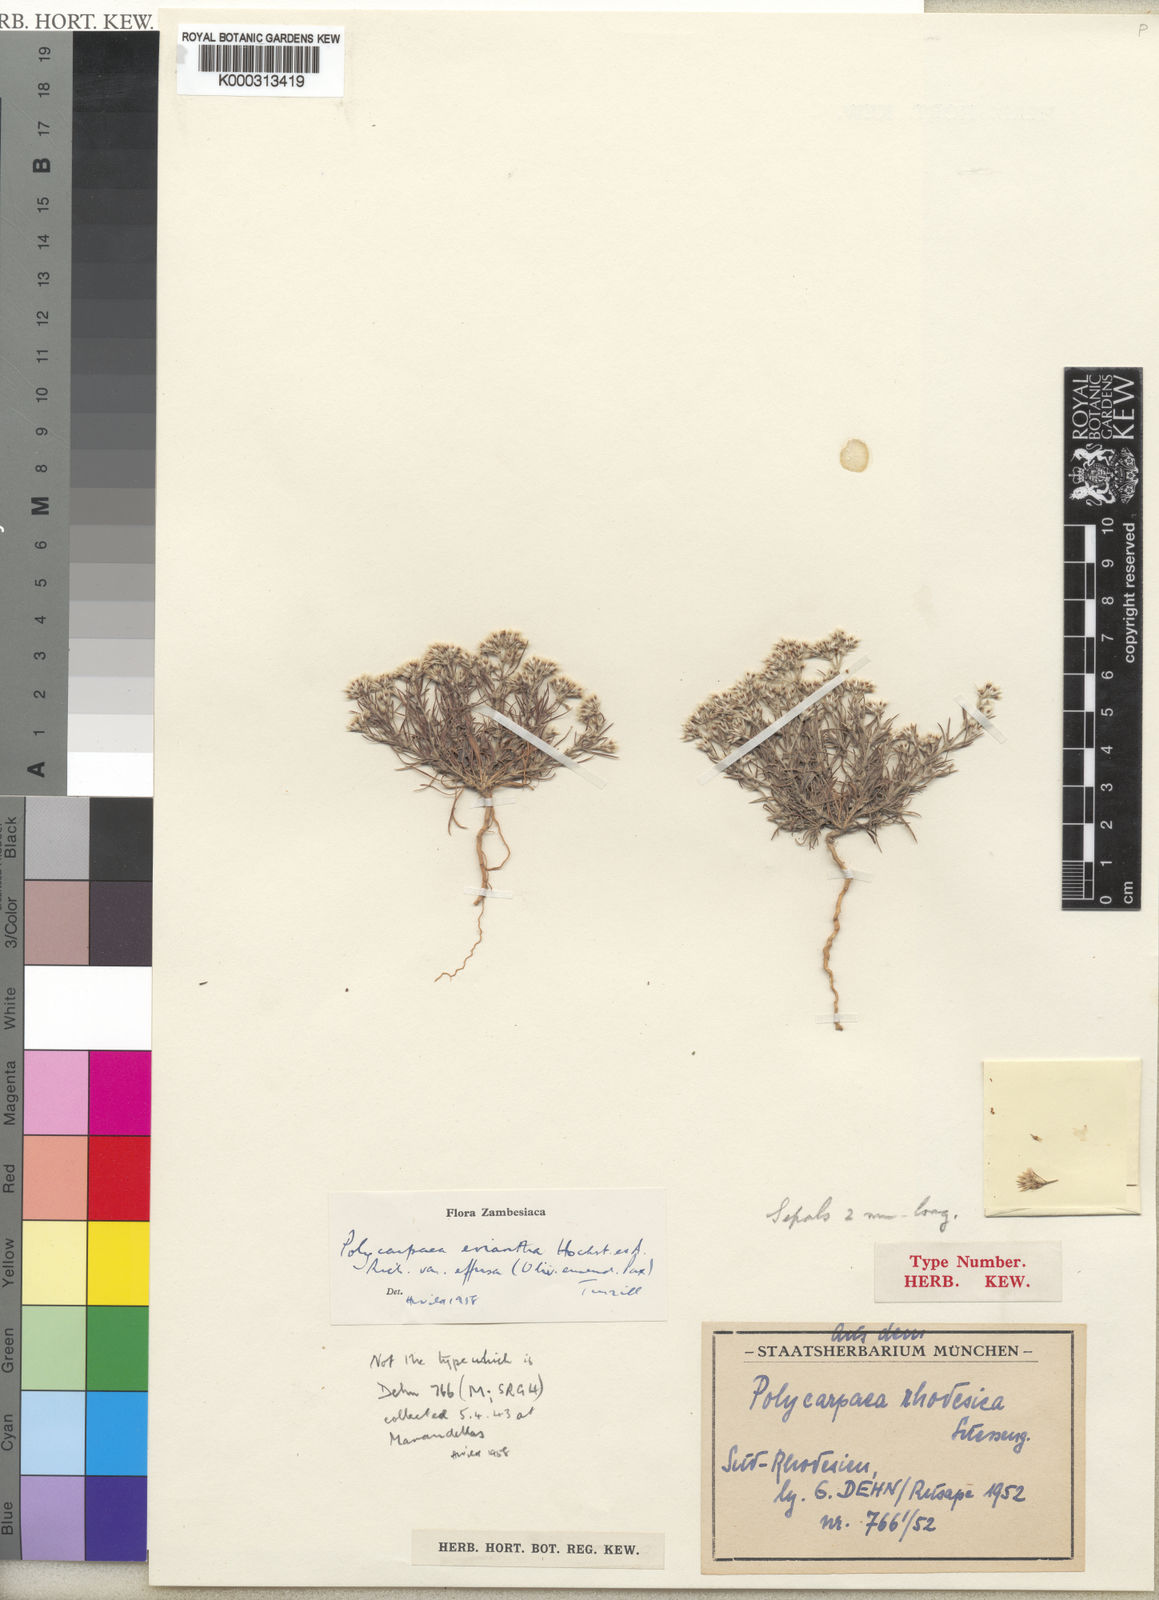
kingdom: Plantae
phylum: Tracheophyta
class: Magnoliopsida
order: Caryophyllales
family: Caryophyllaceae
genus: Polycarpaea
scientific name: Polycarpaea eriantha
